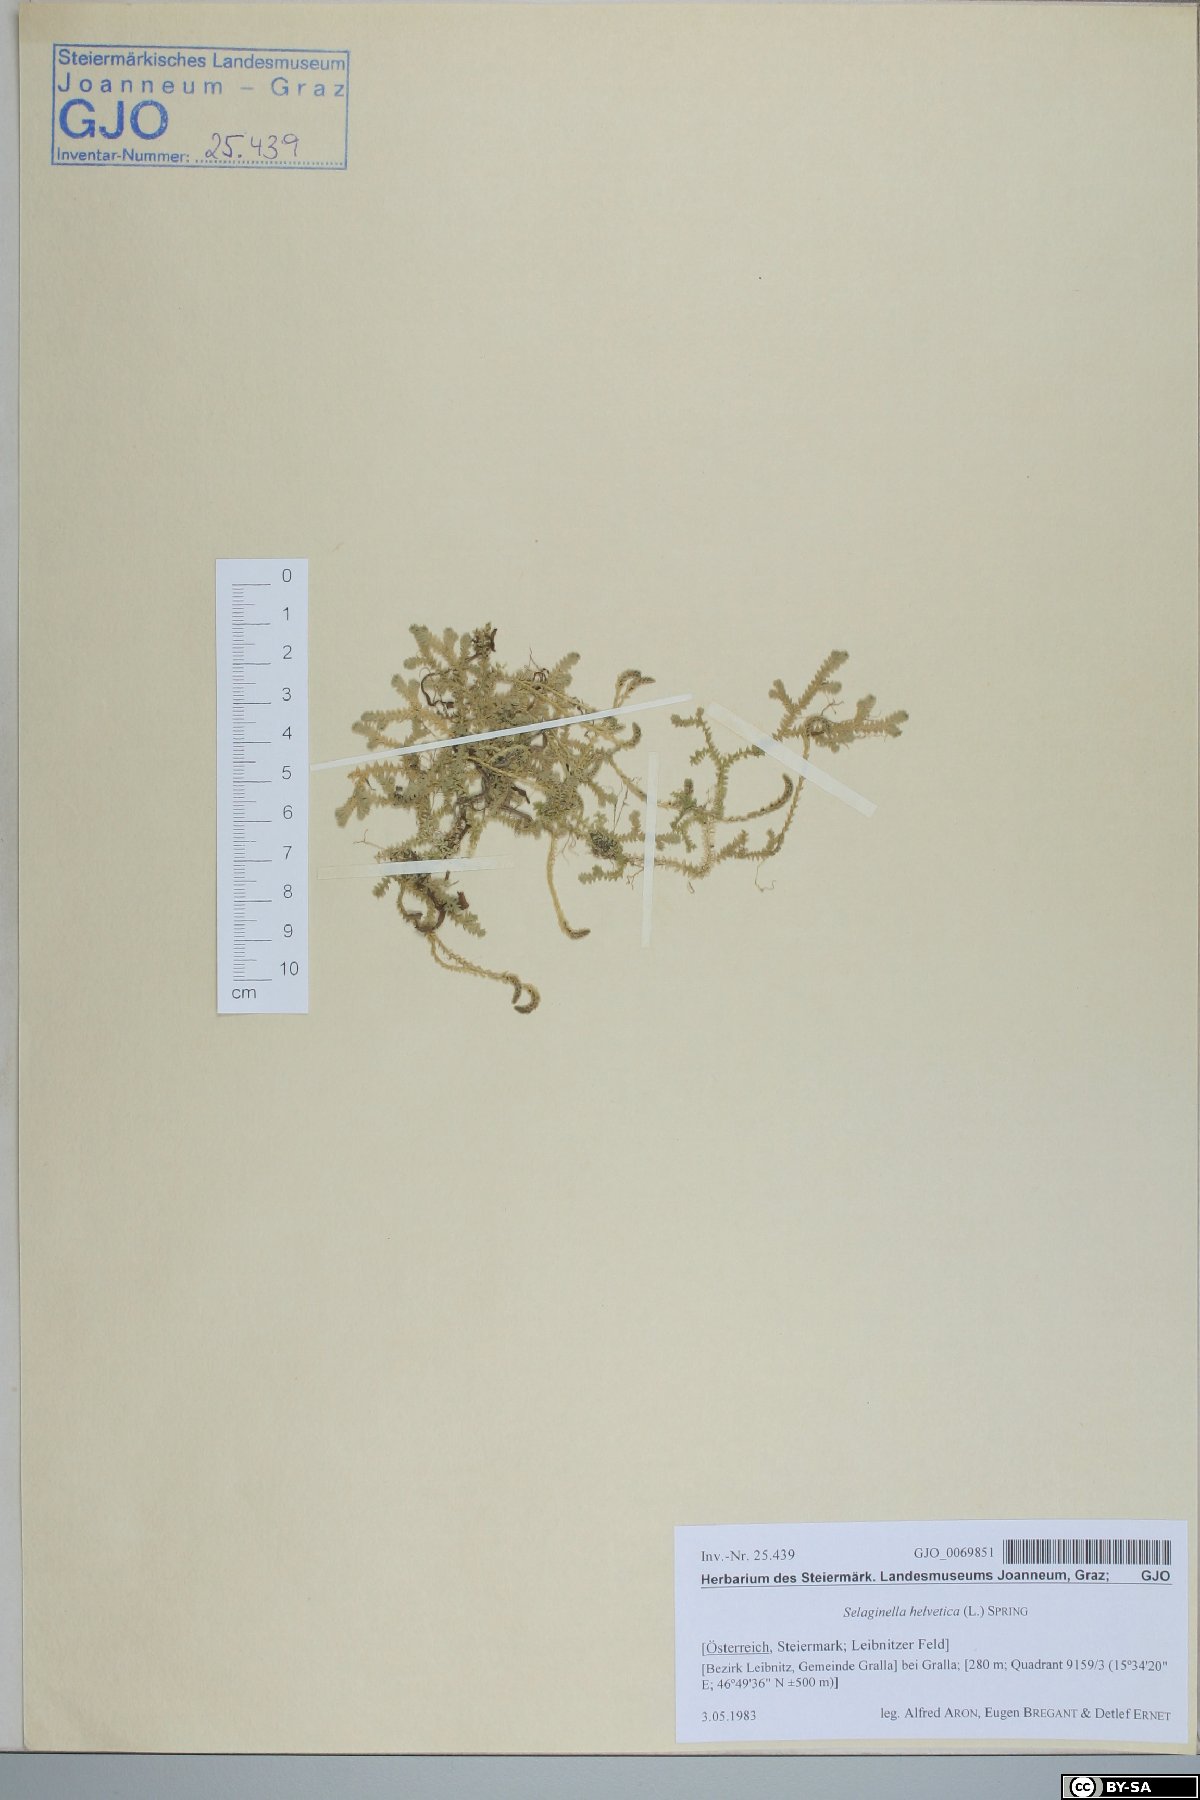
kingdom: Plantae
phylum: Tracheophyta
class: Lycopodiopsida
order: Selaginellales
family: Selaginellaceae
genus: Selaginella
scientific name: Selaginella helvetica
